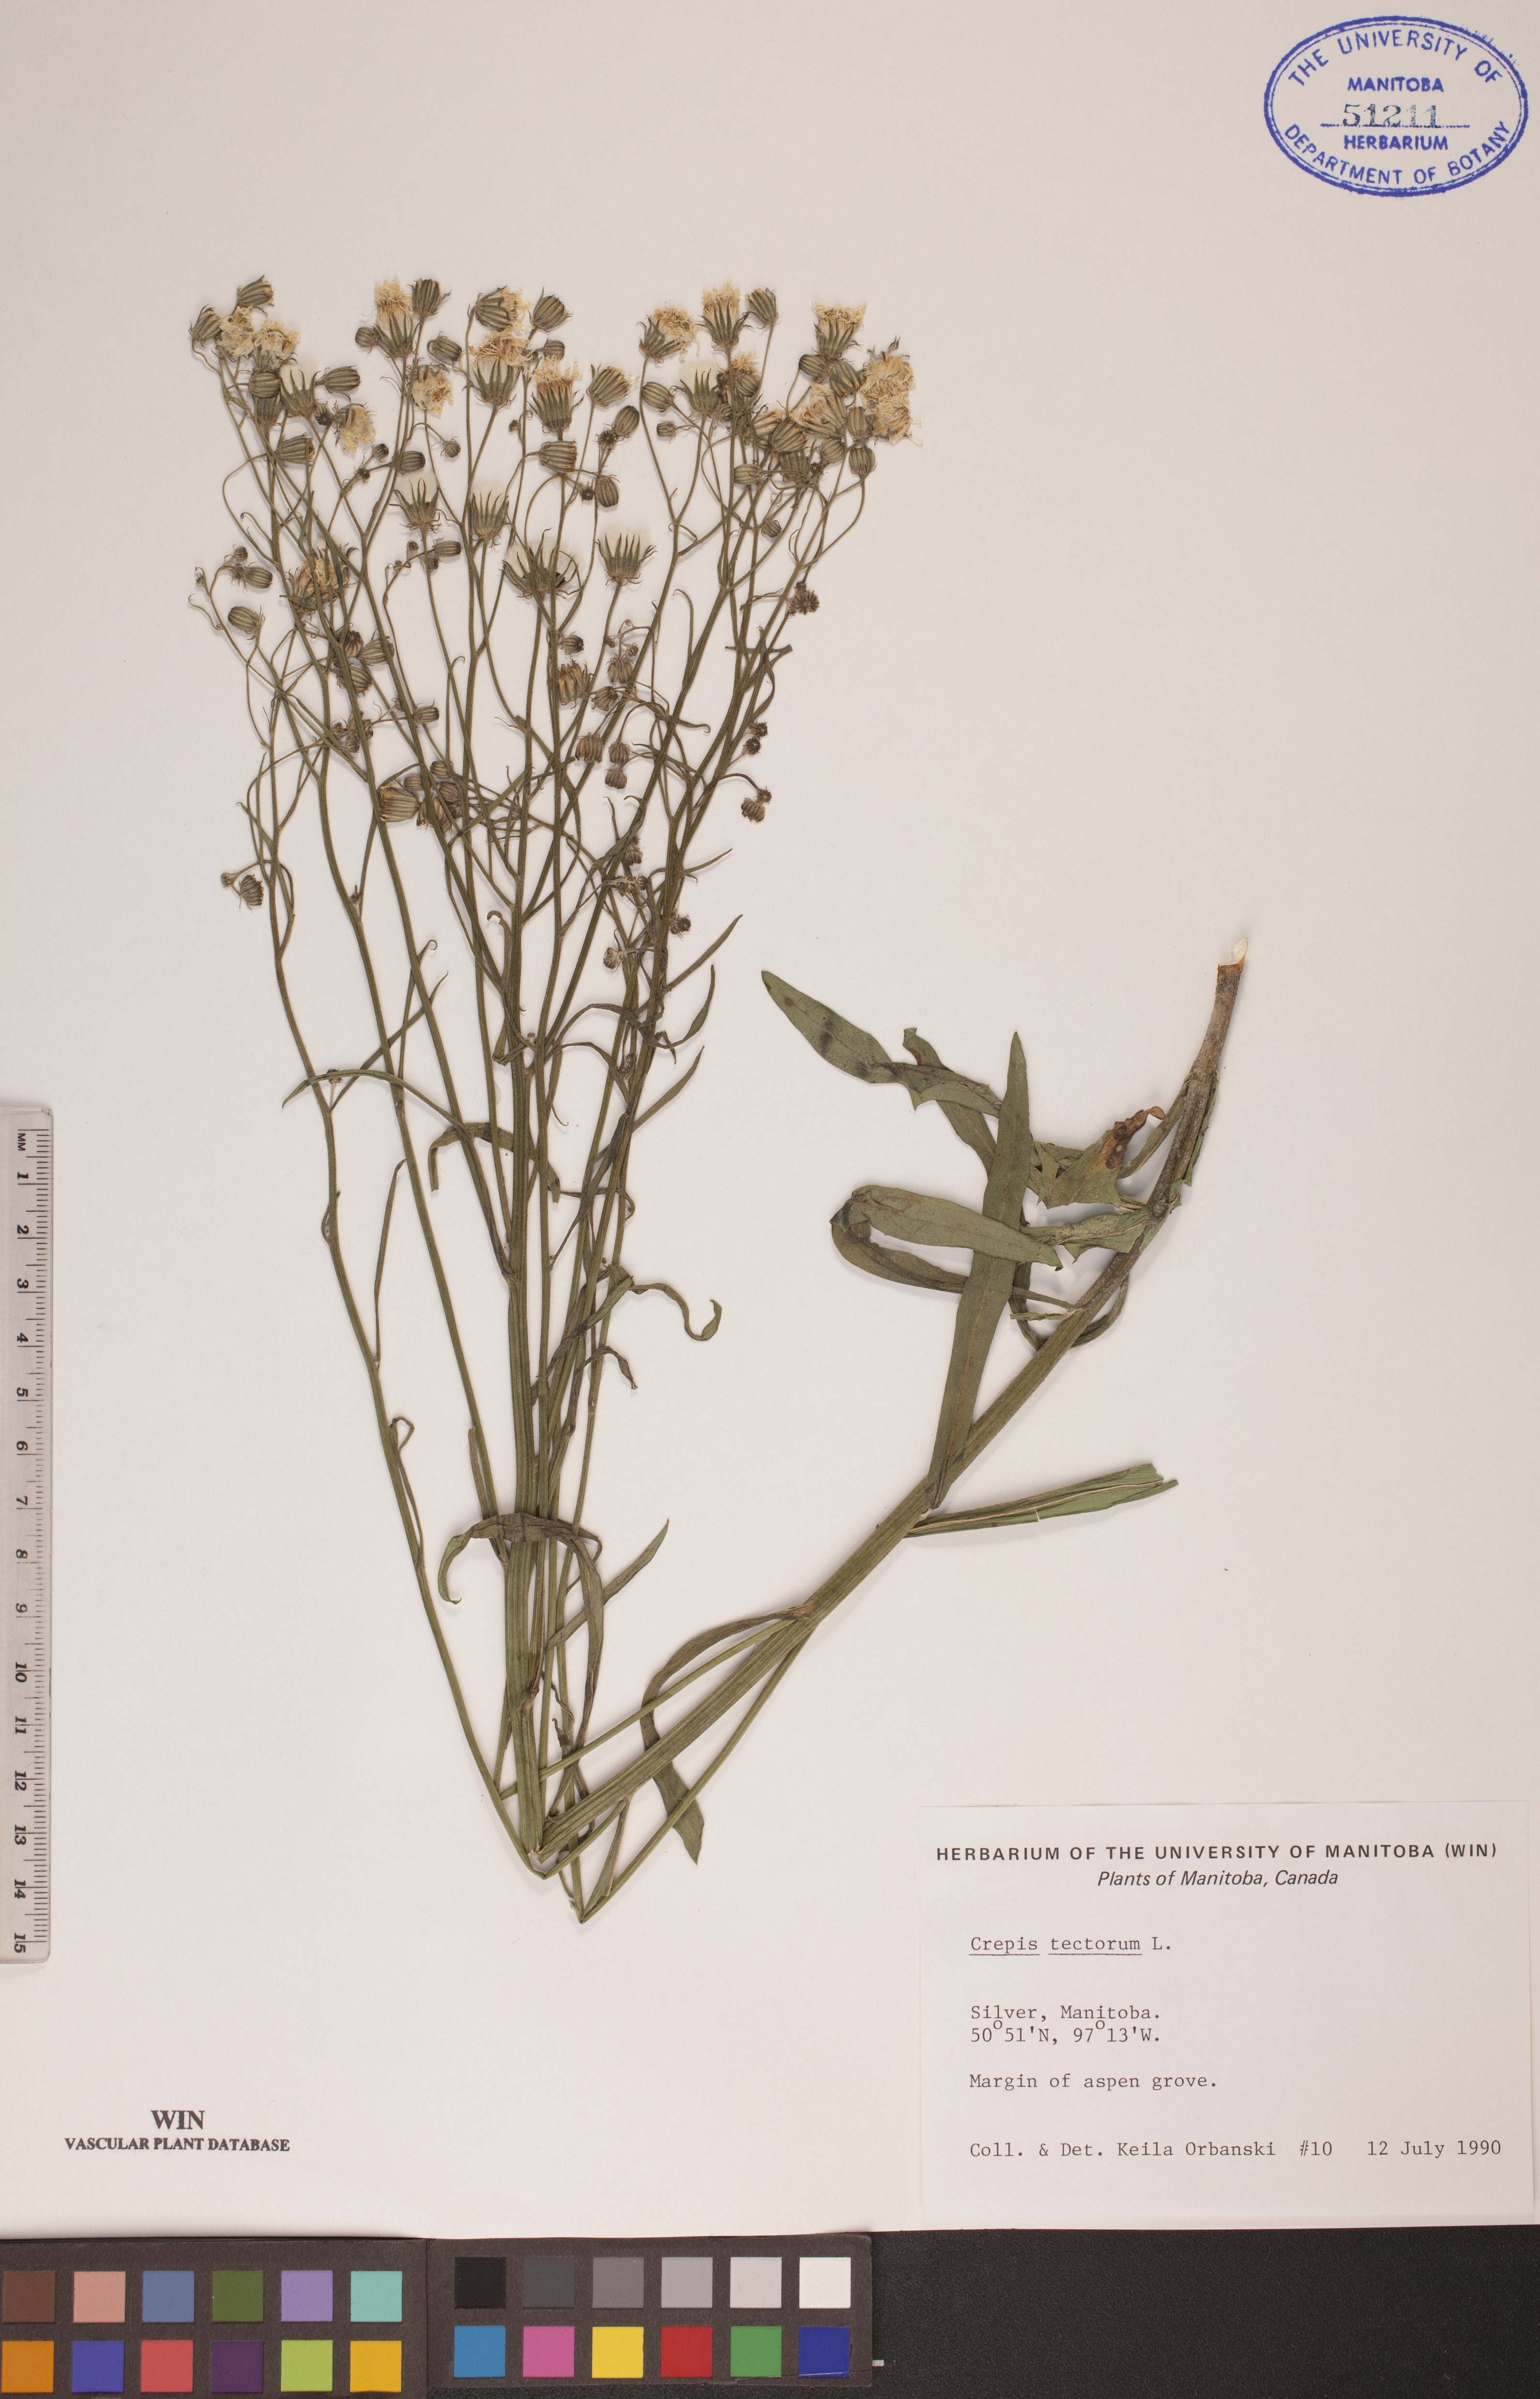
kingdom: Plantae
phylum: Tracheophyta
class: Magnoliopsida
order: Asterales
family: Asteraceae
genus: Crepis
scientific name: Crepis tectorum
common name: Narrow-leaved hawk's-beard
